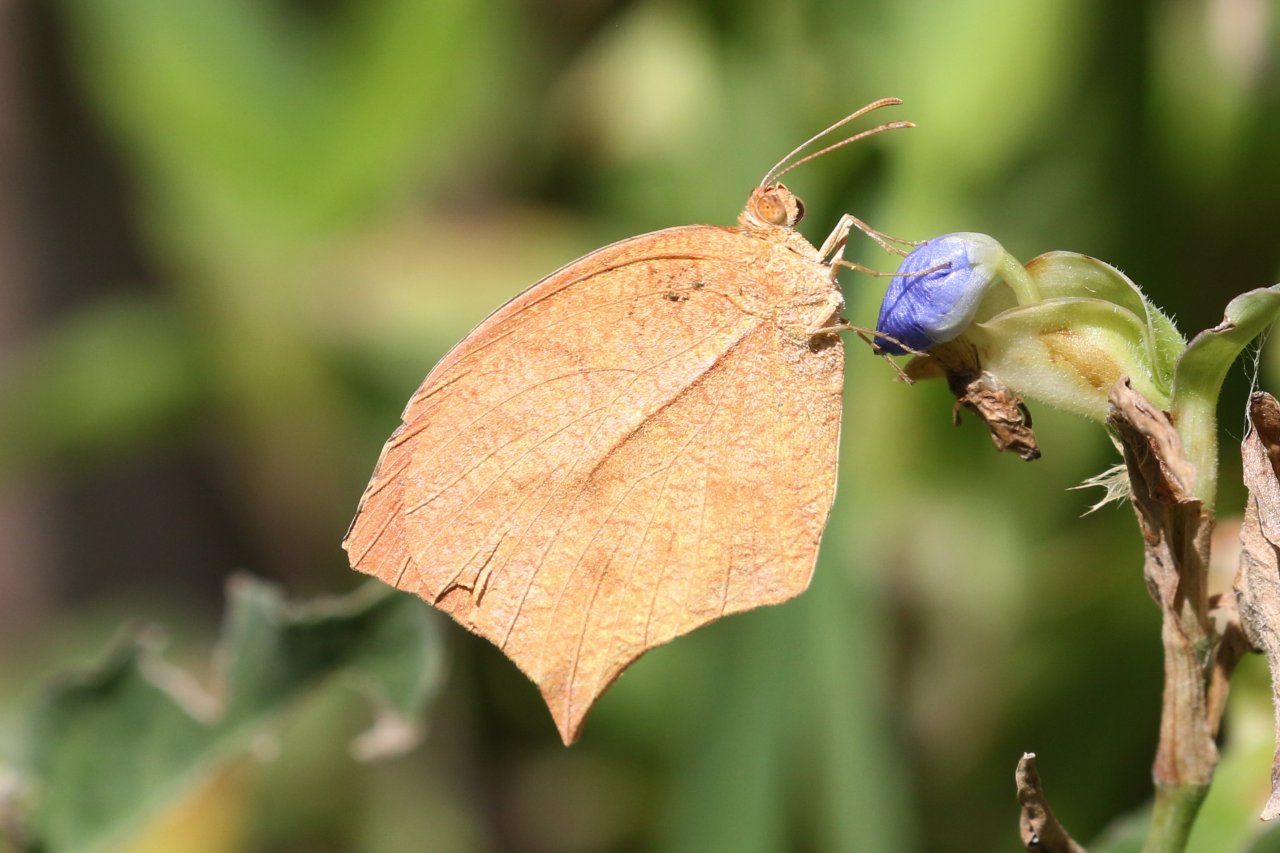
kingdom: Animalia
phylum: Arthropoda
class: Insecta
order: Lepidoptera
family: Pieridae
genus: Pyrisitia
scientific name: Pyrisitia proterpia
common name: Tailed Orange
